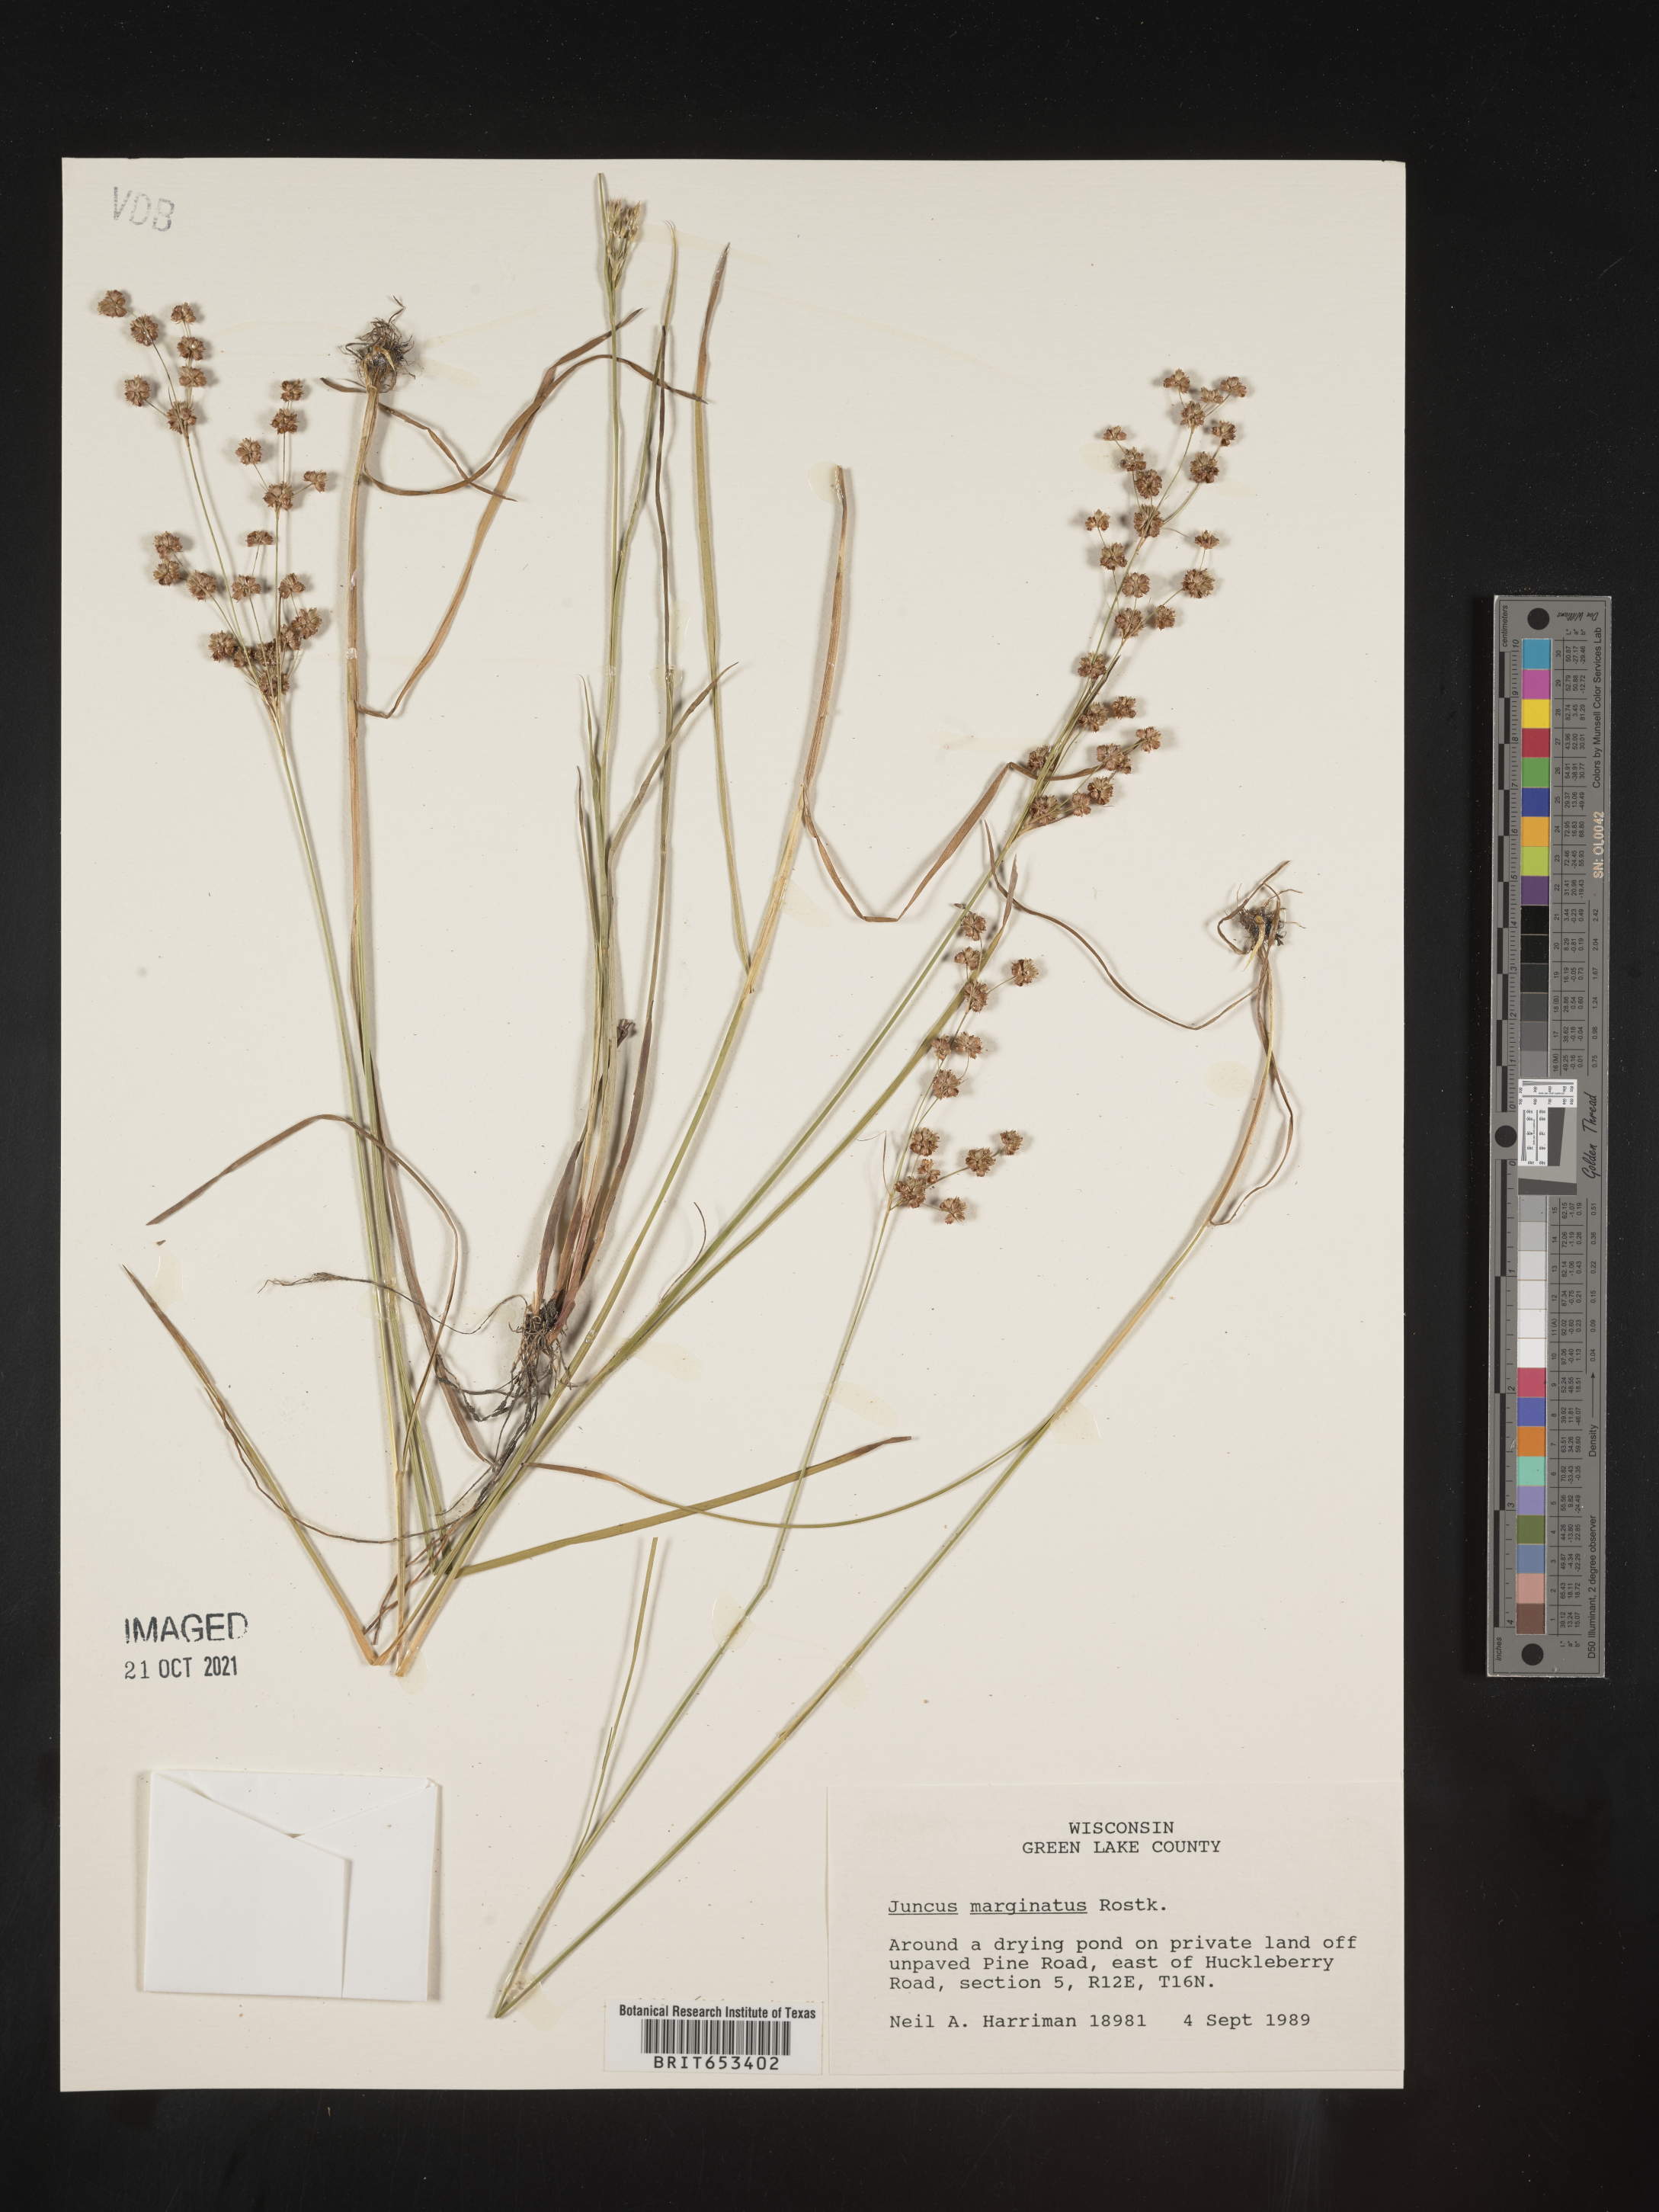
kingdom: Plantae
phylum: Tracheophyta
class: Liliopsida
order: Poales
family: Juncaceae
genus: Juncus
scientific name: Juncus marginatus
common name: Grass-leaf rush
